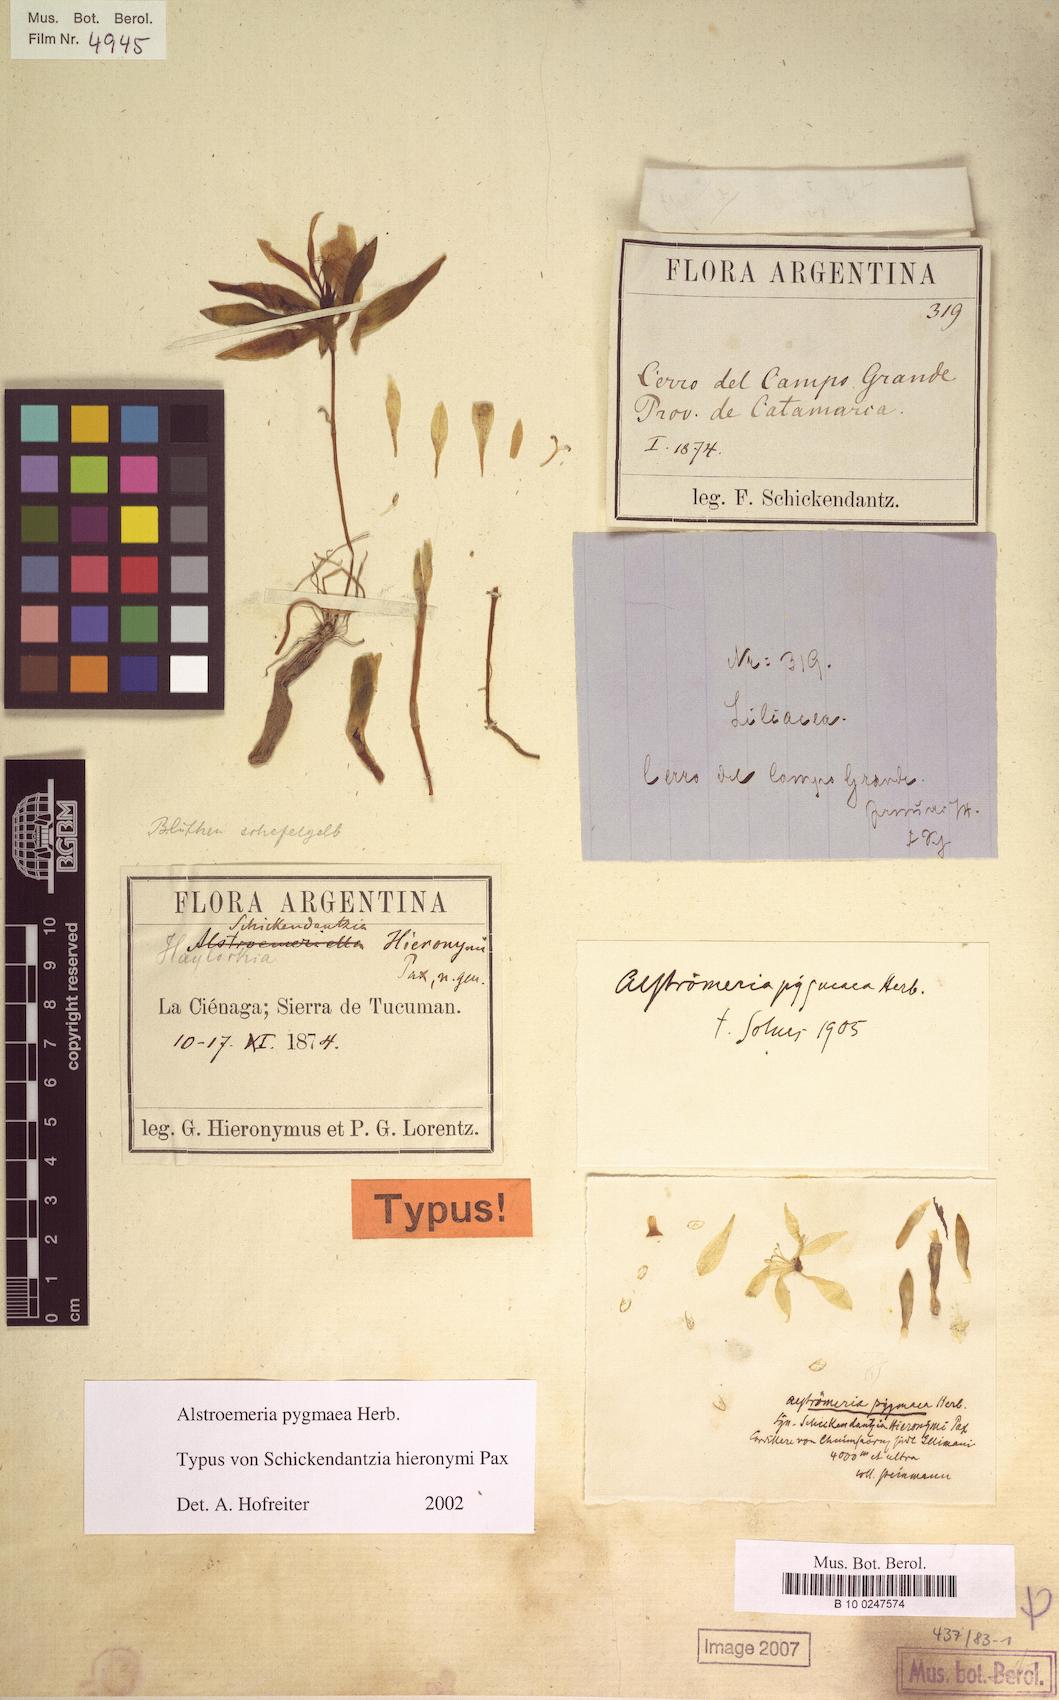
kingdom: Plantae
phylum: Tracheophyta
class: Liliopsida
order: Liliales
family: Alstroemeriaceae
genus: Alstroemeria
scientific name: Alstroemeria pygmaea
